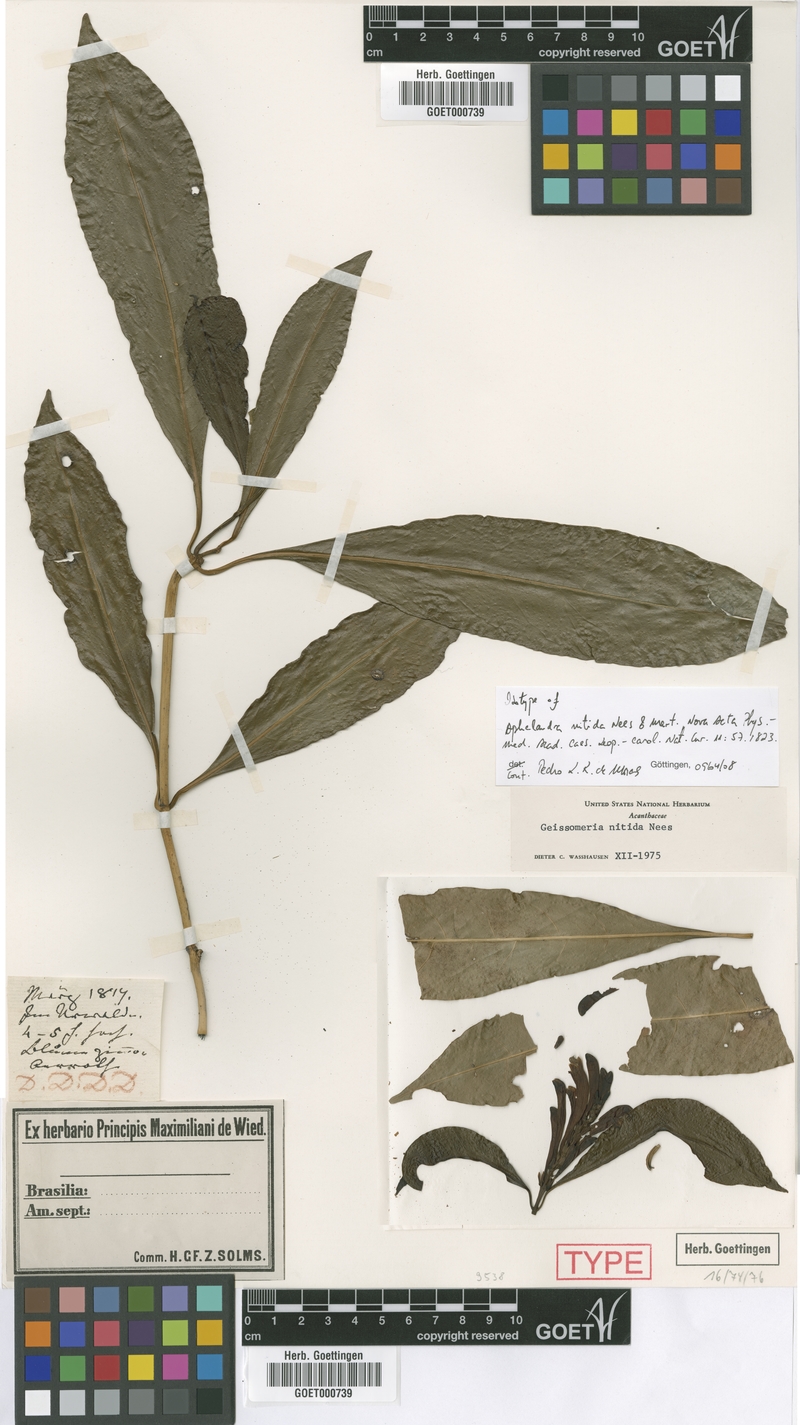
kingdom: Plantae
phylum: Tracheophyta
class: Magnoliopsida
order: Lamiales
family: Acanthaceae
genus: Aphelandra
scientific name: Aphelandra nitida
